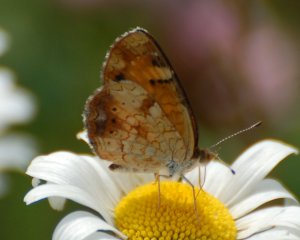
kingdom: Animalia
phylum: Arthropoda
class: Insecta
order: Lepidoptera
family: Nymphalidae
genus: Phyciodes
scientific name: Phyciodes tharos
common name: Northern Crescent
